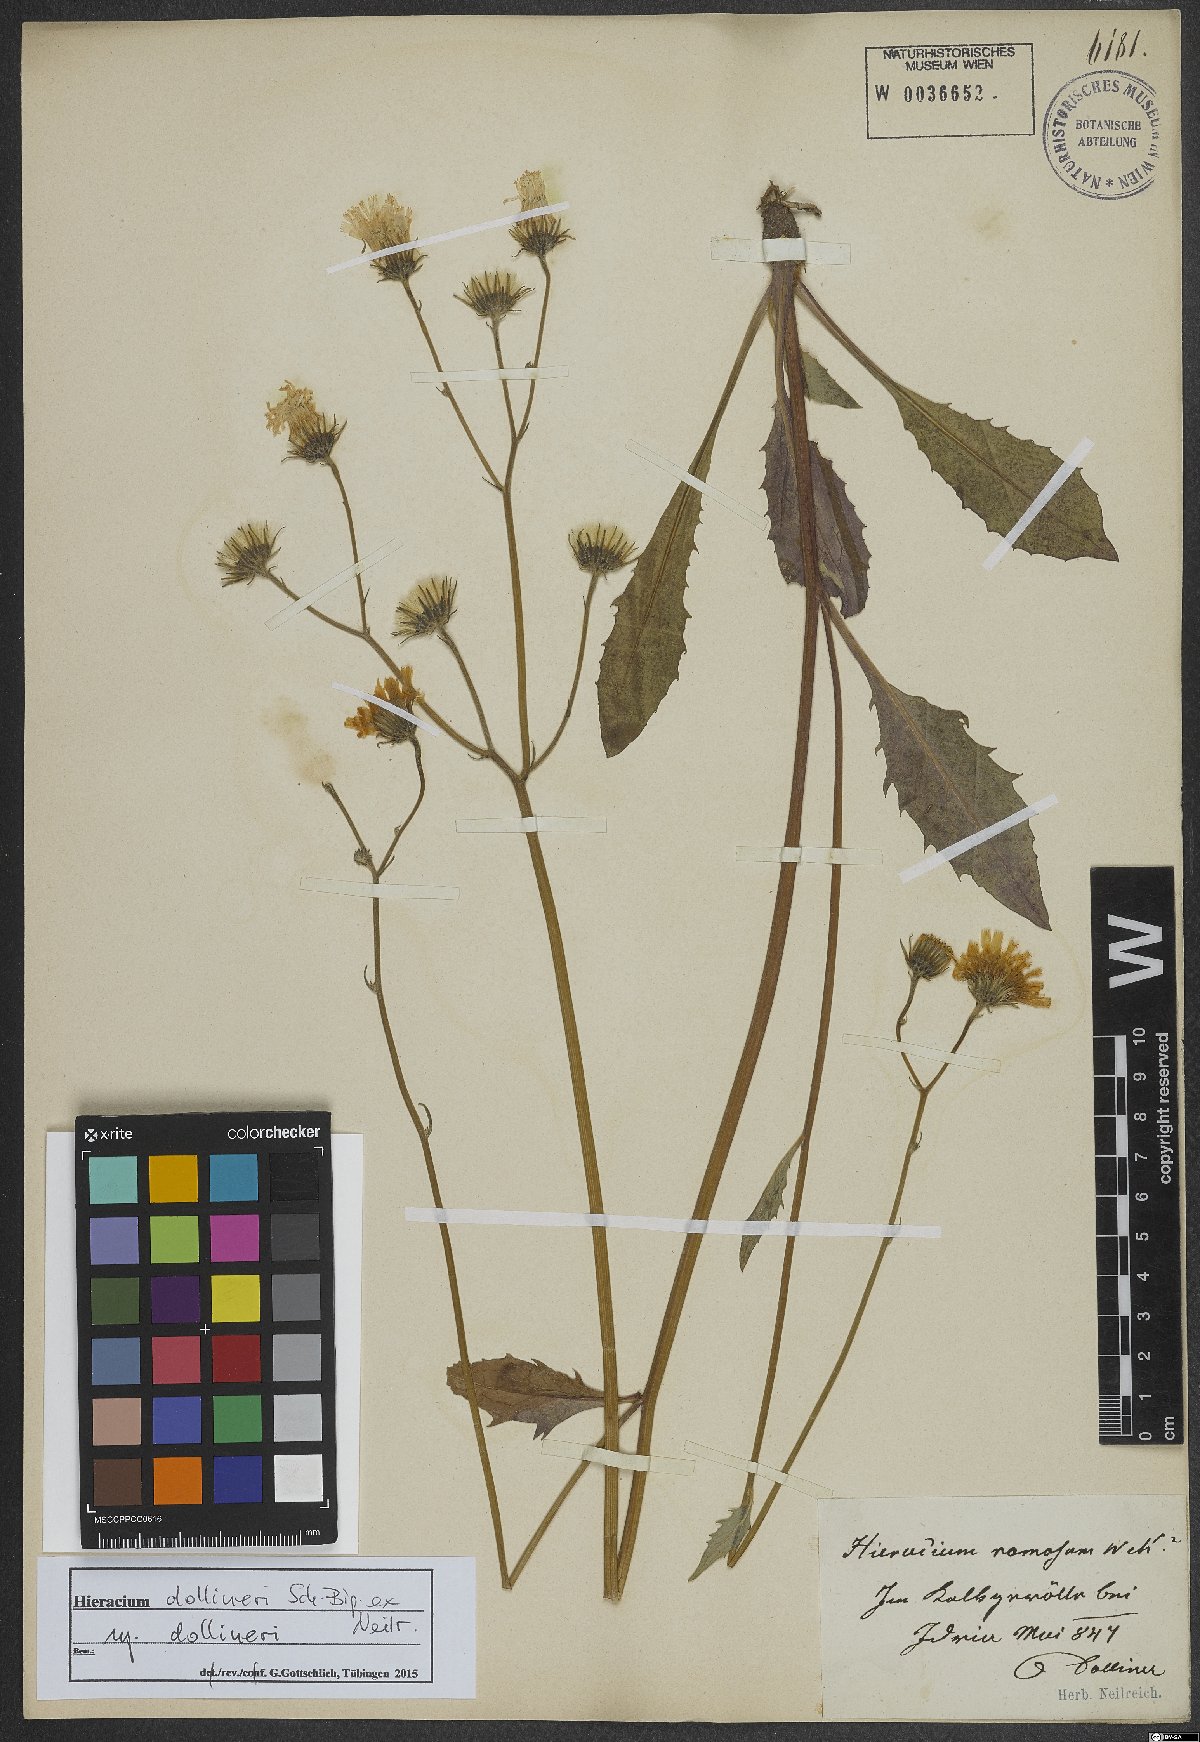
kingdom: Plantae
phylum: Tracheophyta
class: Magnoliopsida
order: Asterales
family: Asteraceae
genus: Hieracium
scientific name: Hieracium dollineri
